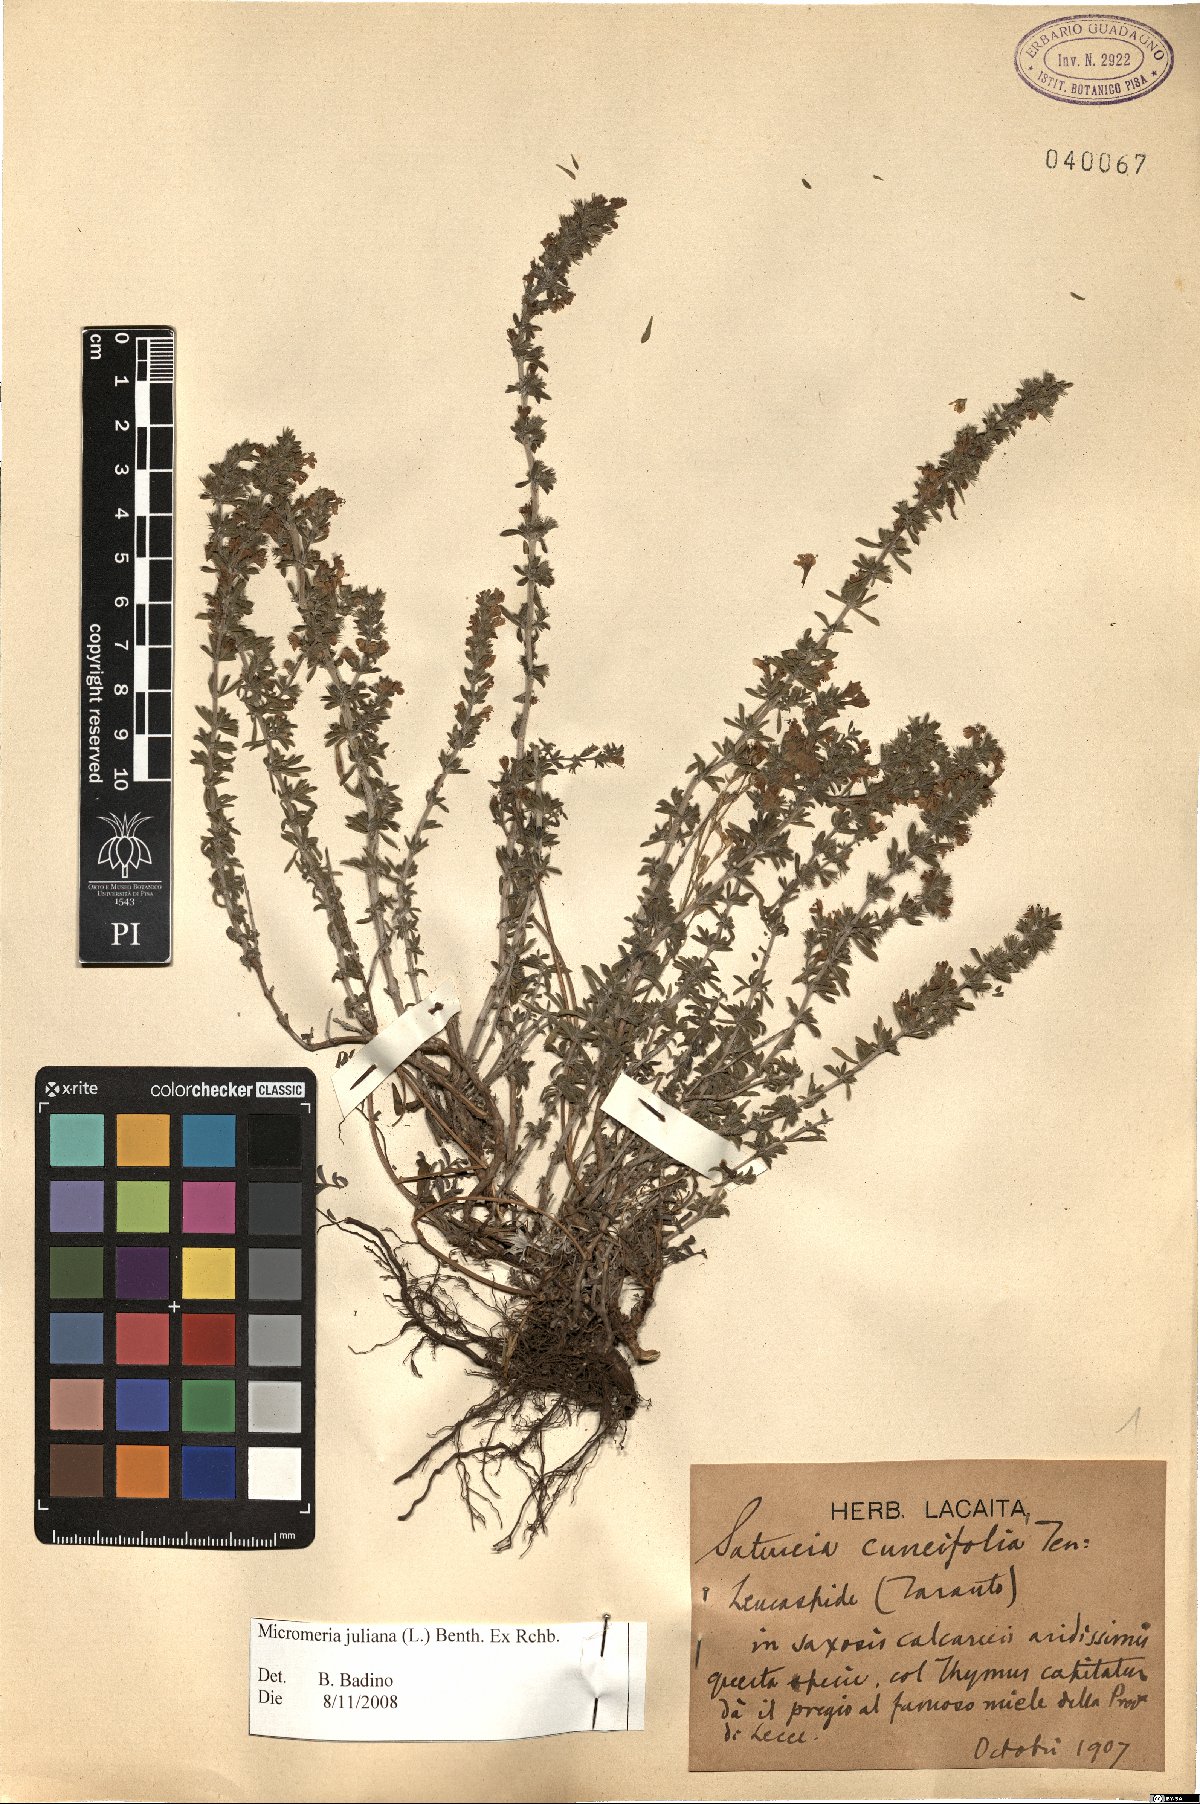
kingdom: Plantae
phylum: Tracheophyta
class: Magnoliopsida
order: Lamiales
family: Lamiaceae
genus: Micromeria
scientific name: Micromeria juliana
